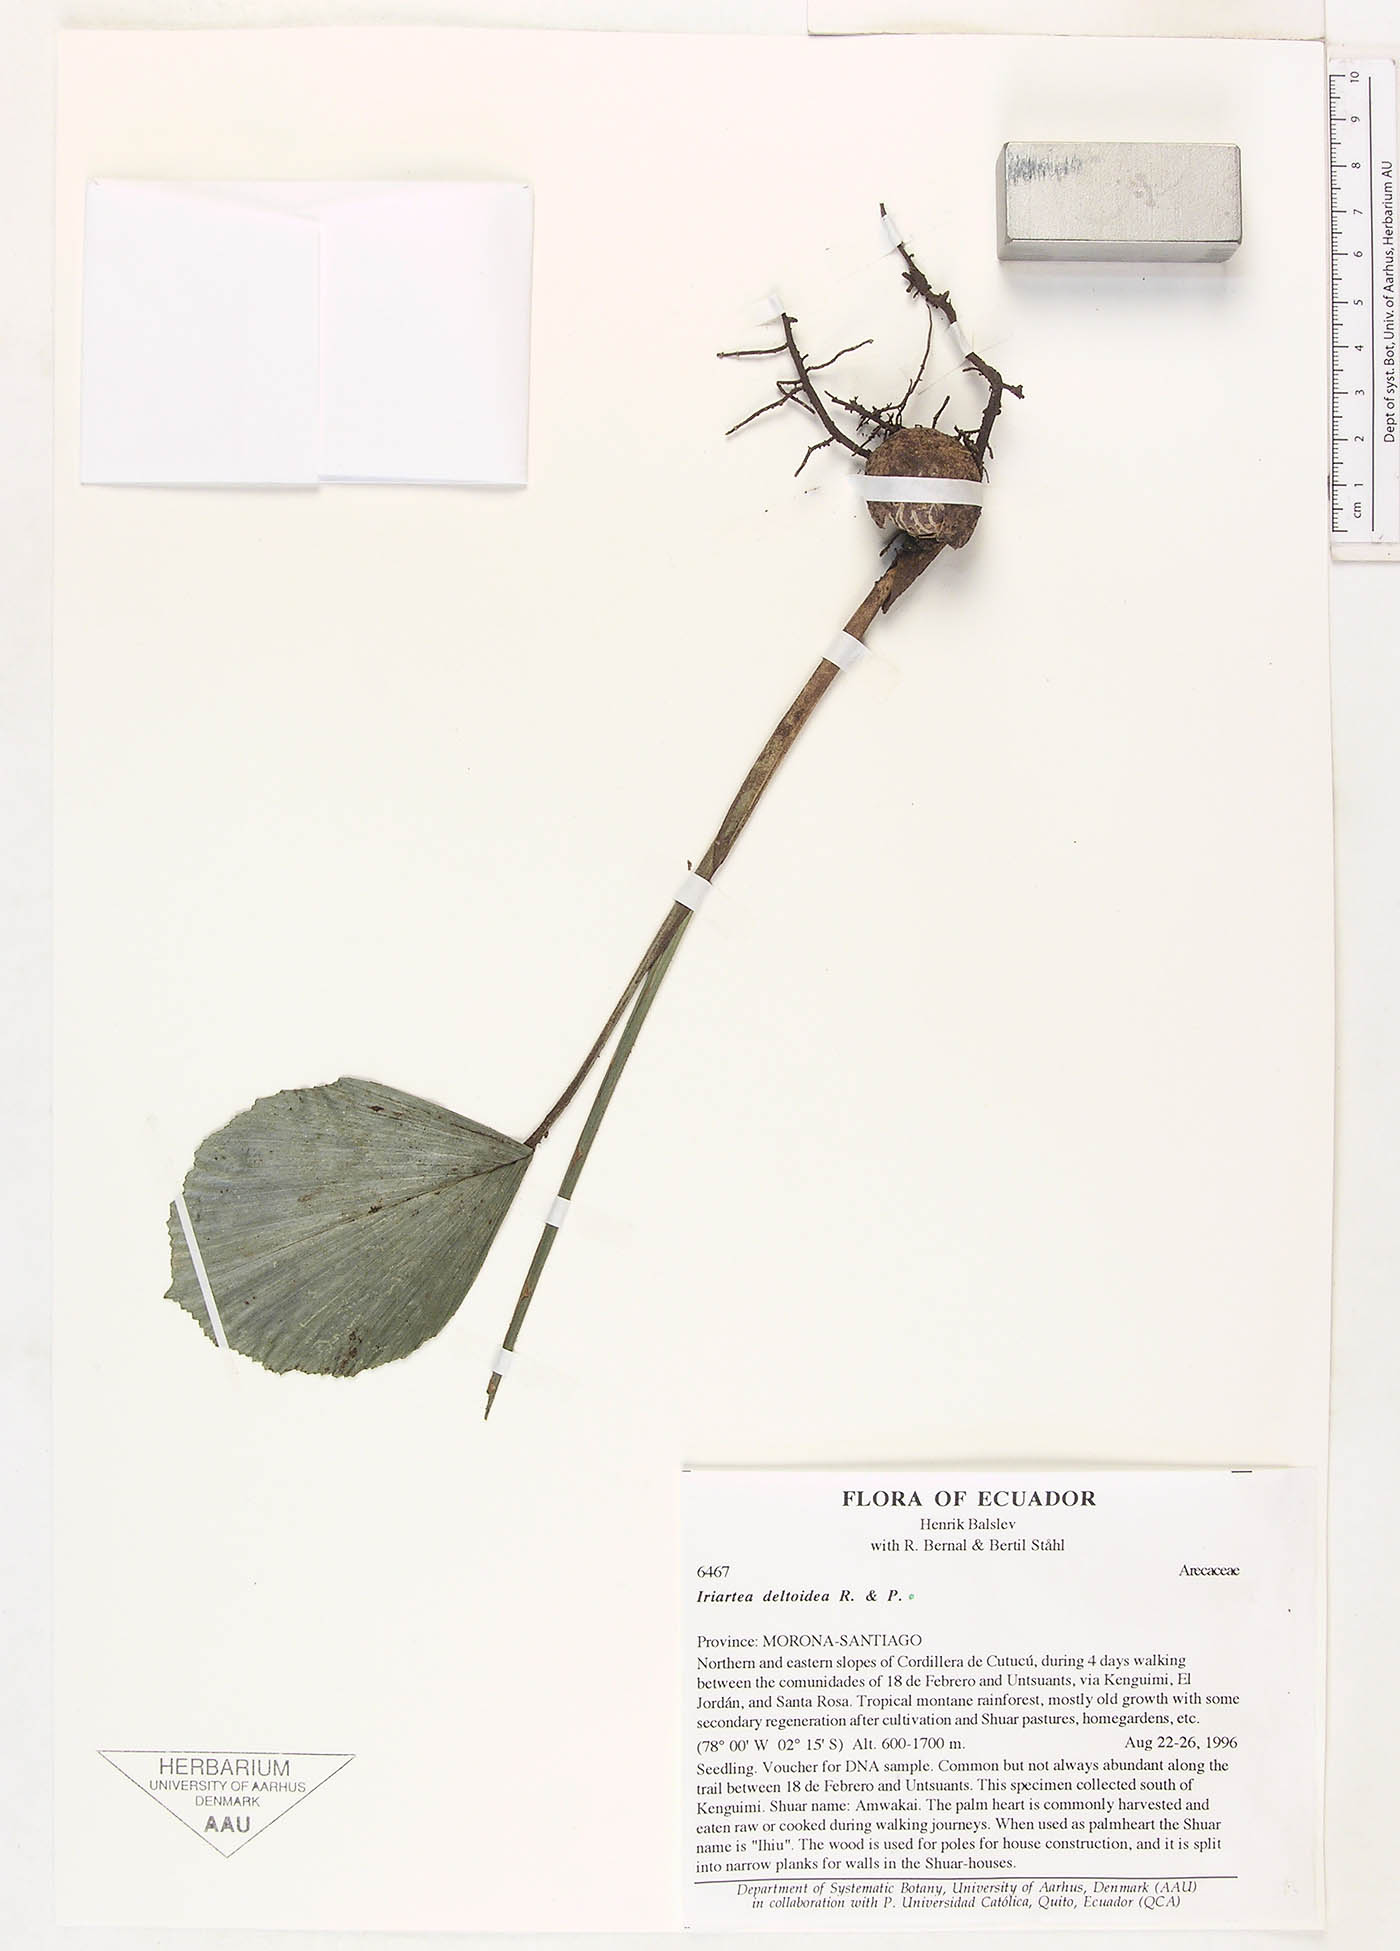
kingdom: Plantae
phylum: Tracheophyta
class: Liliopsida
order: Arecales
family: Arecaceae
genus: Iriartea
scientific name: Iriartea deltoidea
